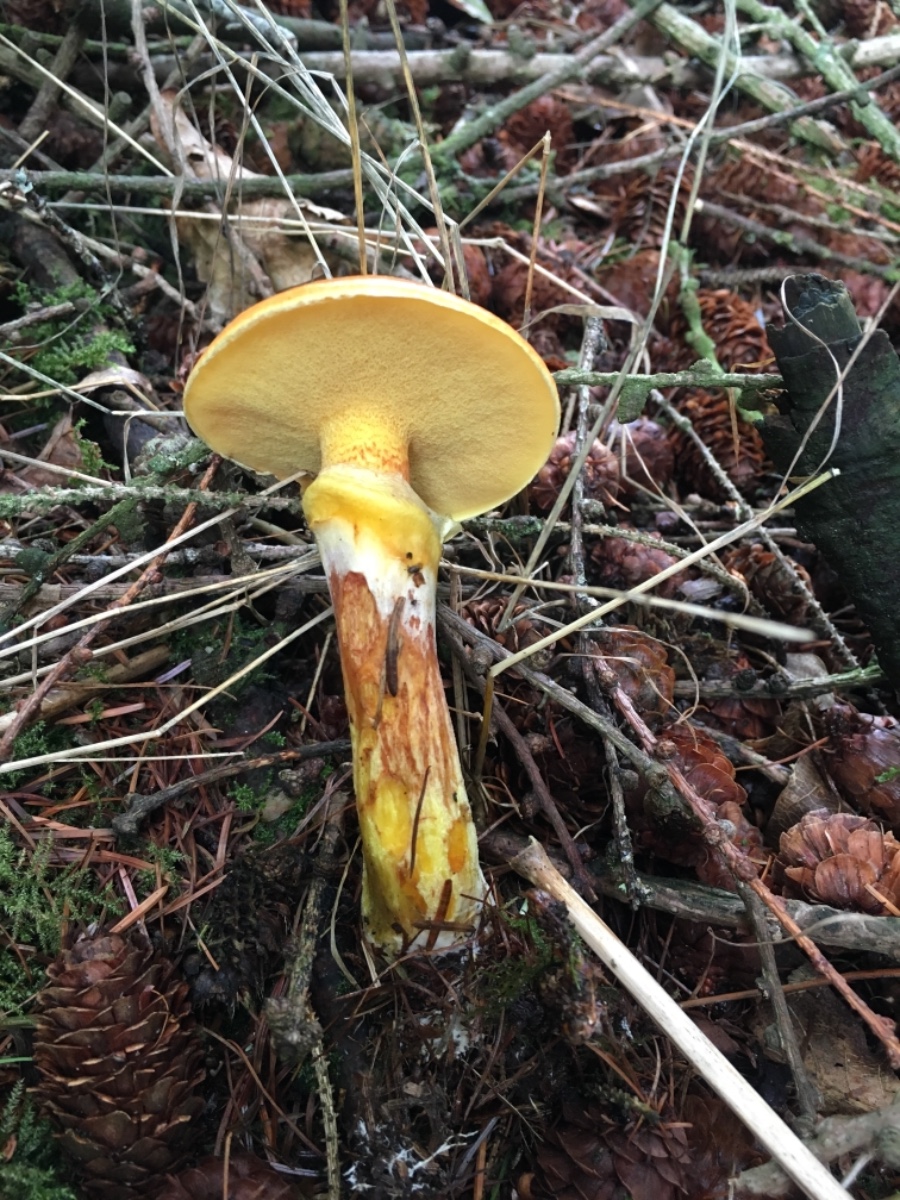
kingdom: Fungi
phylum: Basidiomycota
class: Agaricomycetes
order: Boletales
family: Suillaceae
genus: Suillus
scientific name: Suillus grevillei
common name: lærke-slimrørhat
